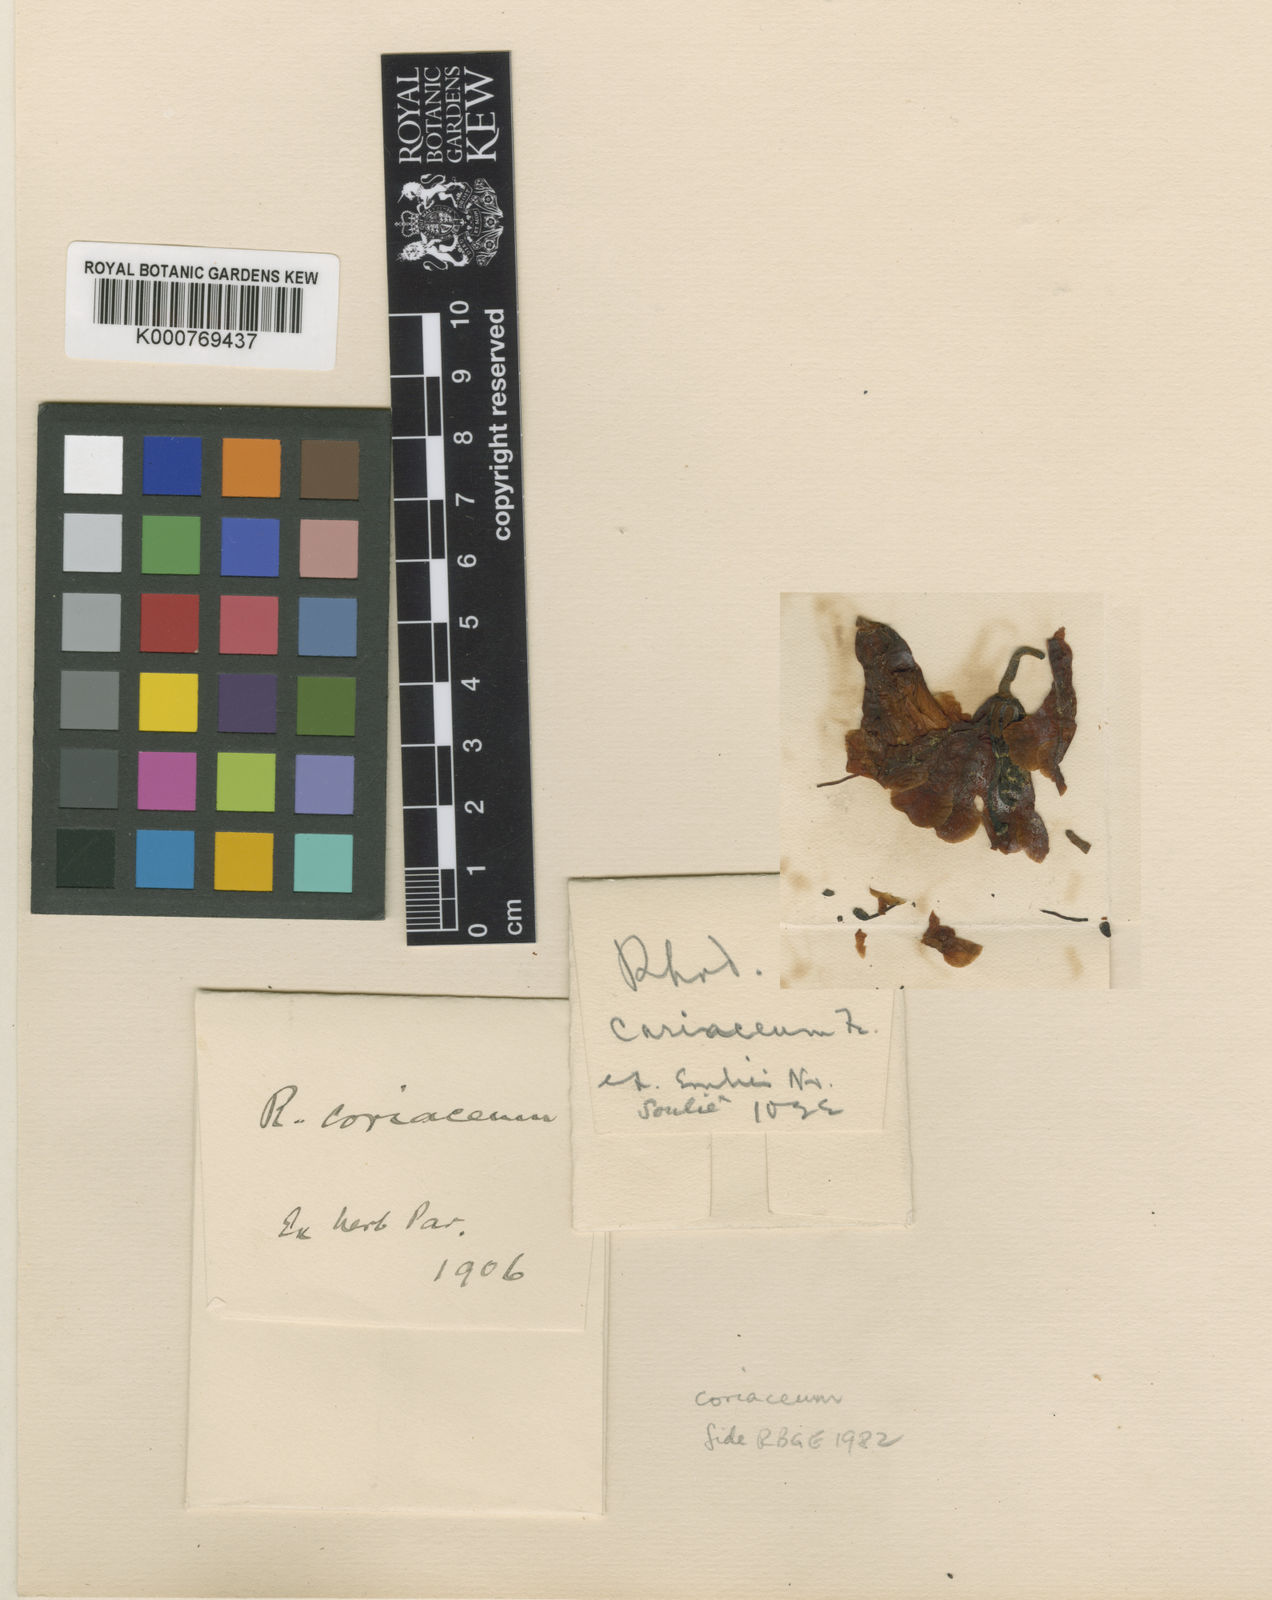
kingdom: Plantae
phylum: Tracheophyta
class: Magnoliopsida
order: Ericales
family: Ericaceae
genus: Rhododendron
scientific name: Rhododendron coriaceum
